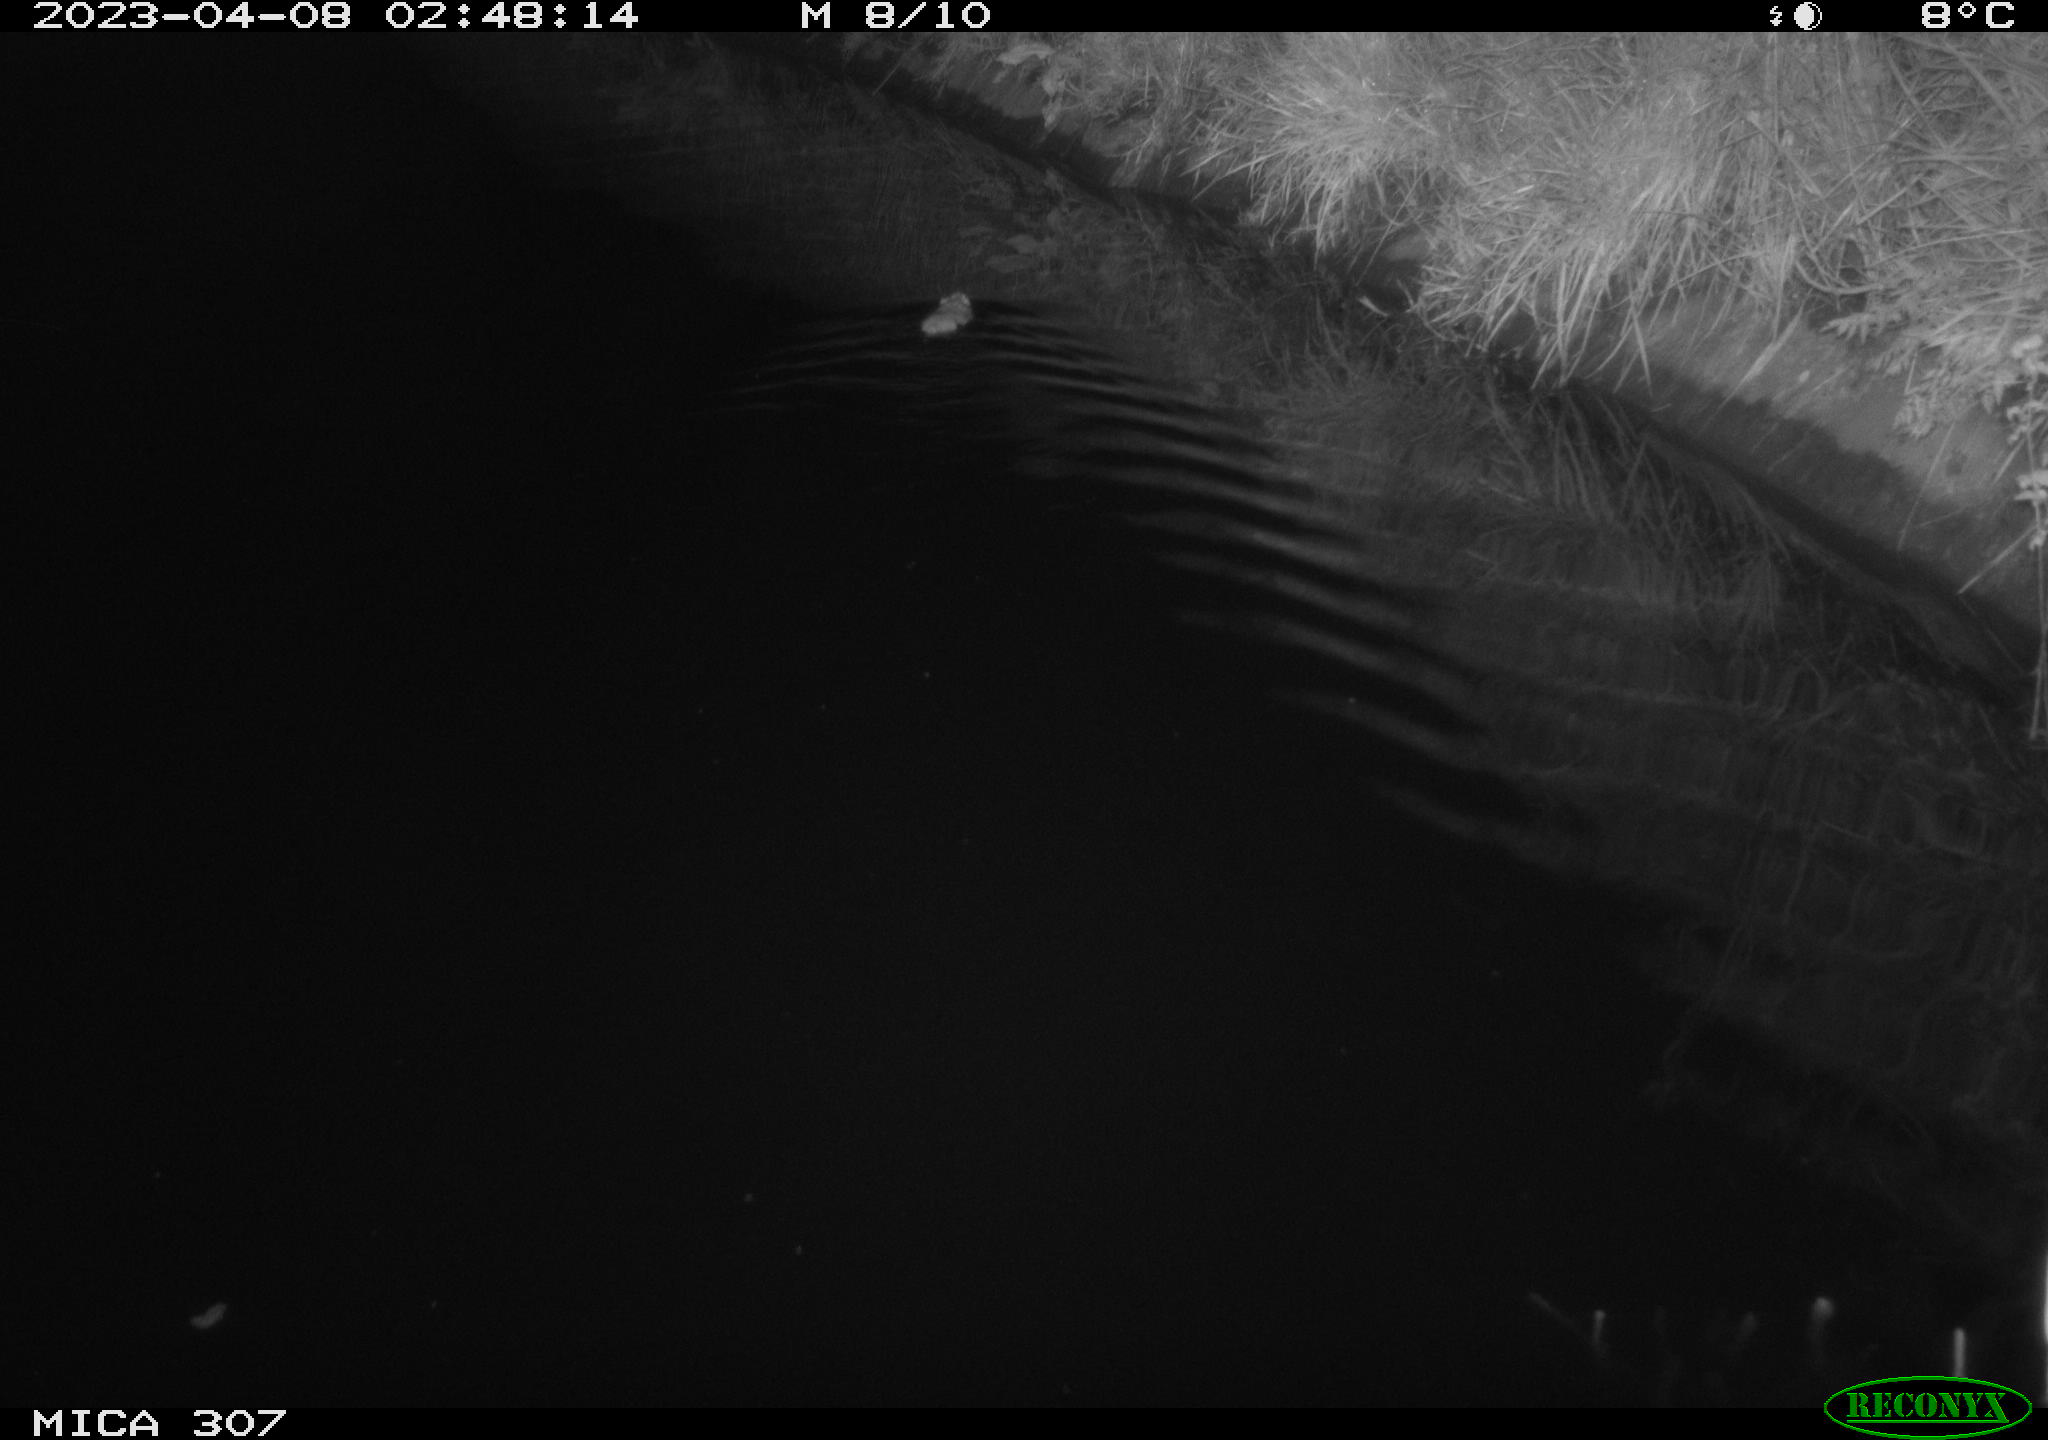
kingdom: Animalia
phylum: Chordata
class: Mammalia
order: Rodentia
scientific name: Rodentia
